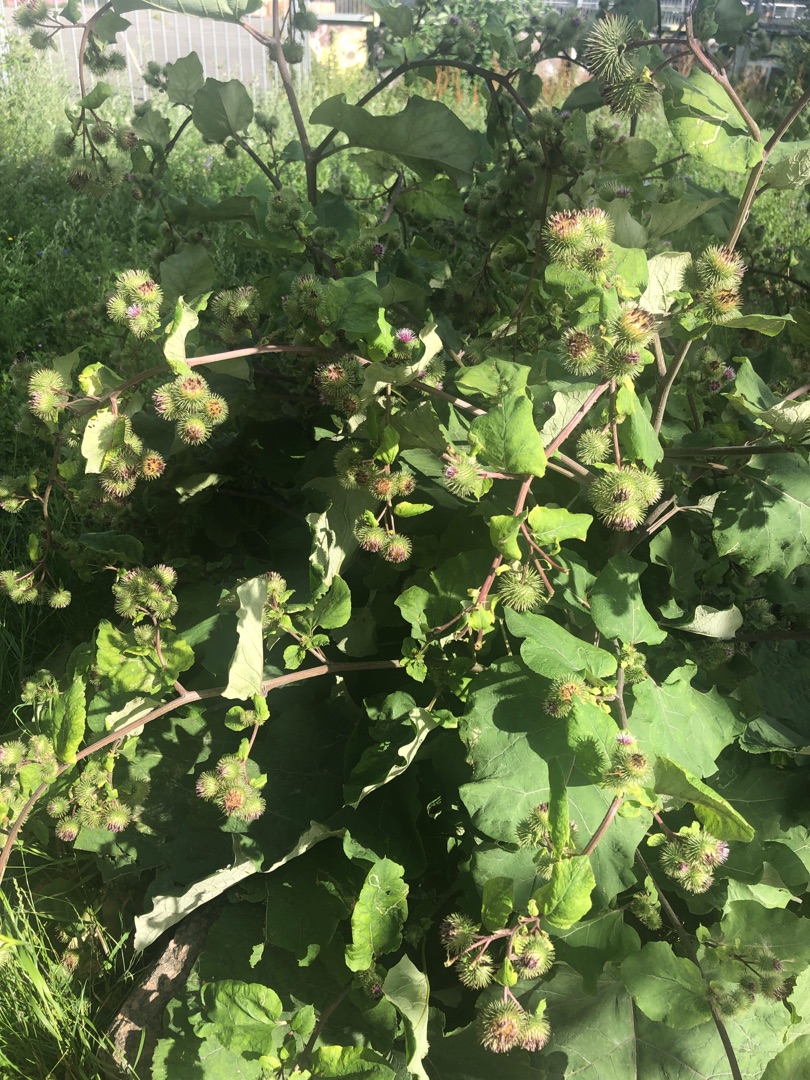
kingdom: Plantae
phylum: Tracheophyta
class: Magnoliopsida
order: Asterales
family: Asteraceae
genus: Arctium
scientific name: Arctium lappa
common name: Glat burre
